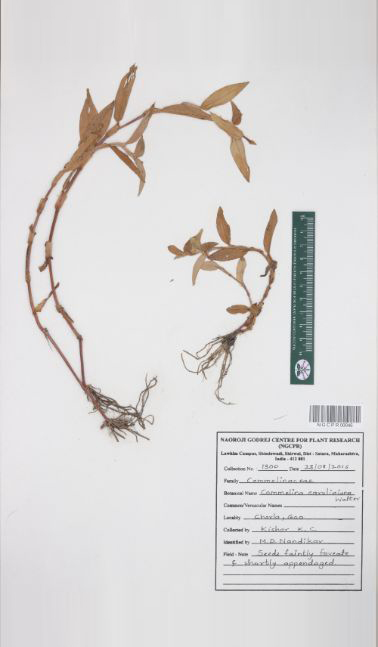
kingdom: Plantae
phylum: Tracheophyta
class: Liliopsida
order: Commelinales
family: Commelinaceae
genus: Commelina
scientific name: Commelina caroliniana
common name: Carolina dayflower
